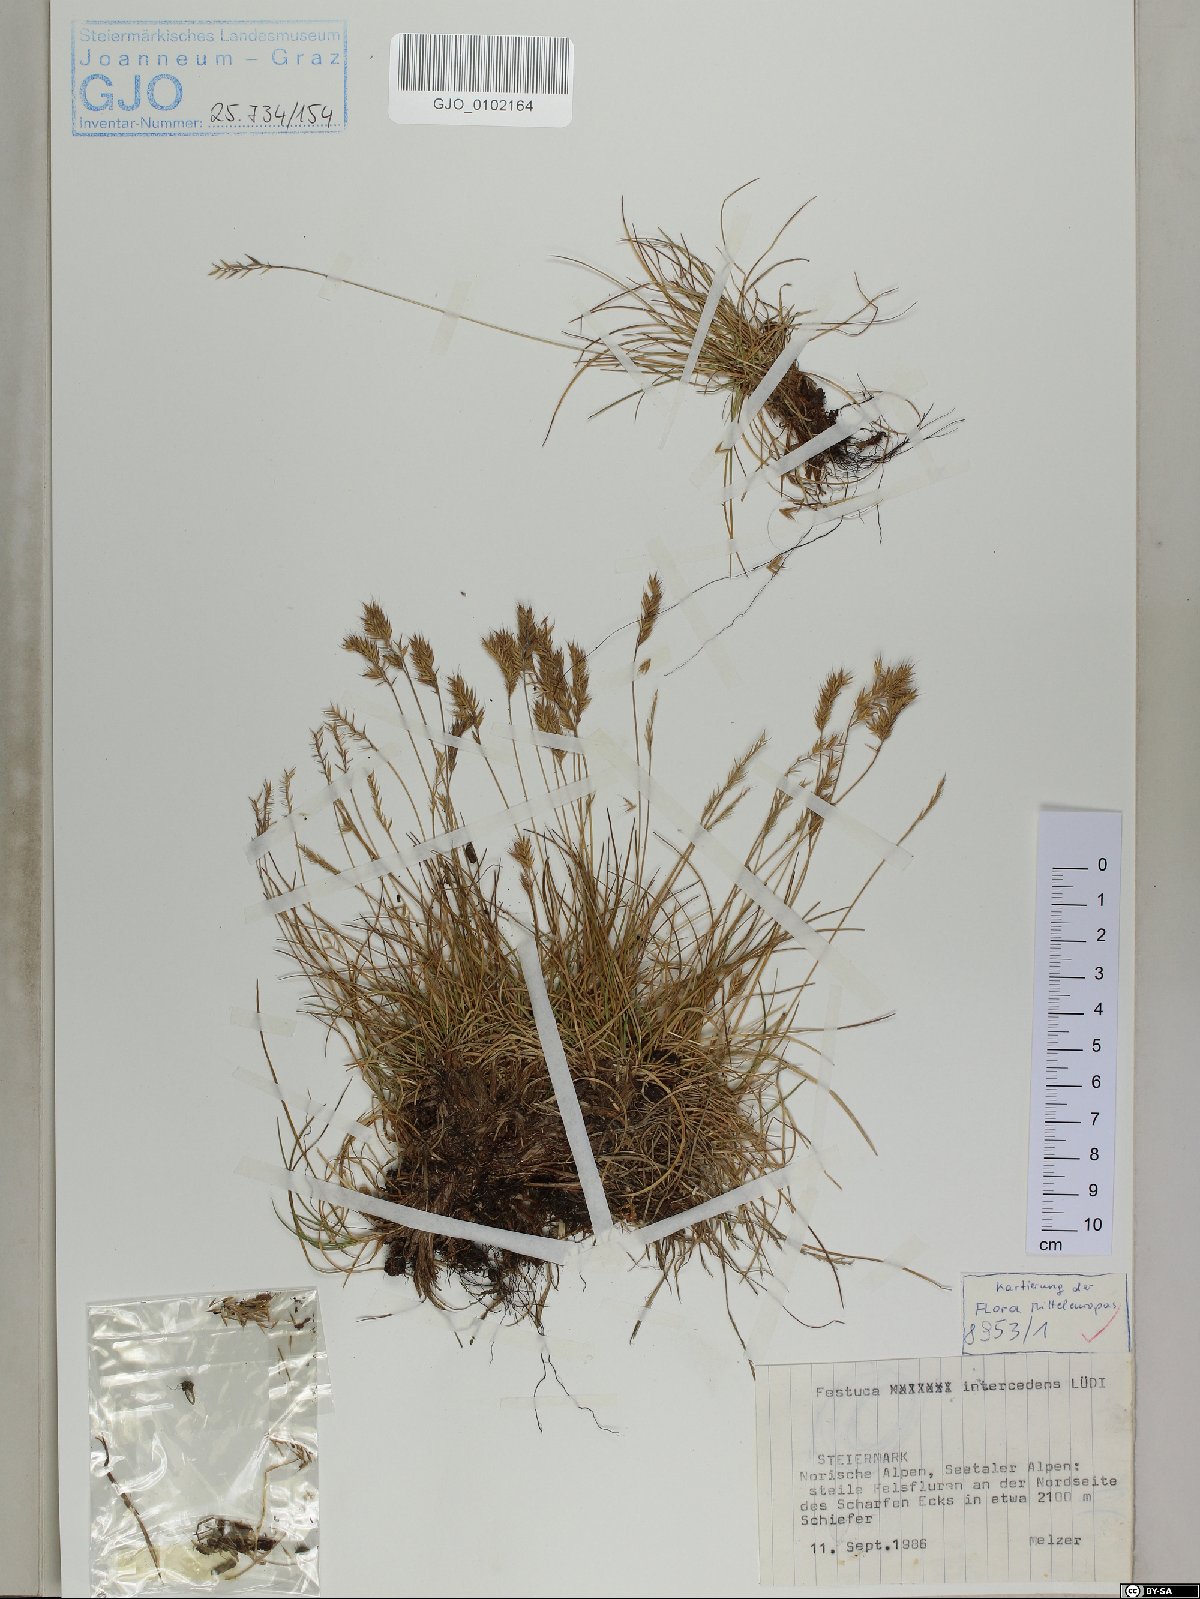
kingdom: Plantae
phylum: Tracheophyta
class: Liliopsida
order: Poales
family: Poaceae
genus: Festuca
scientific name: Festuca intercedens
